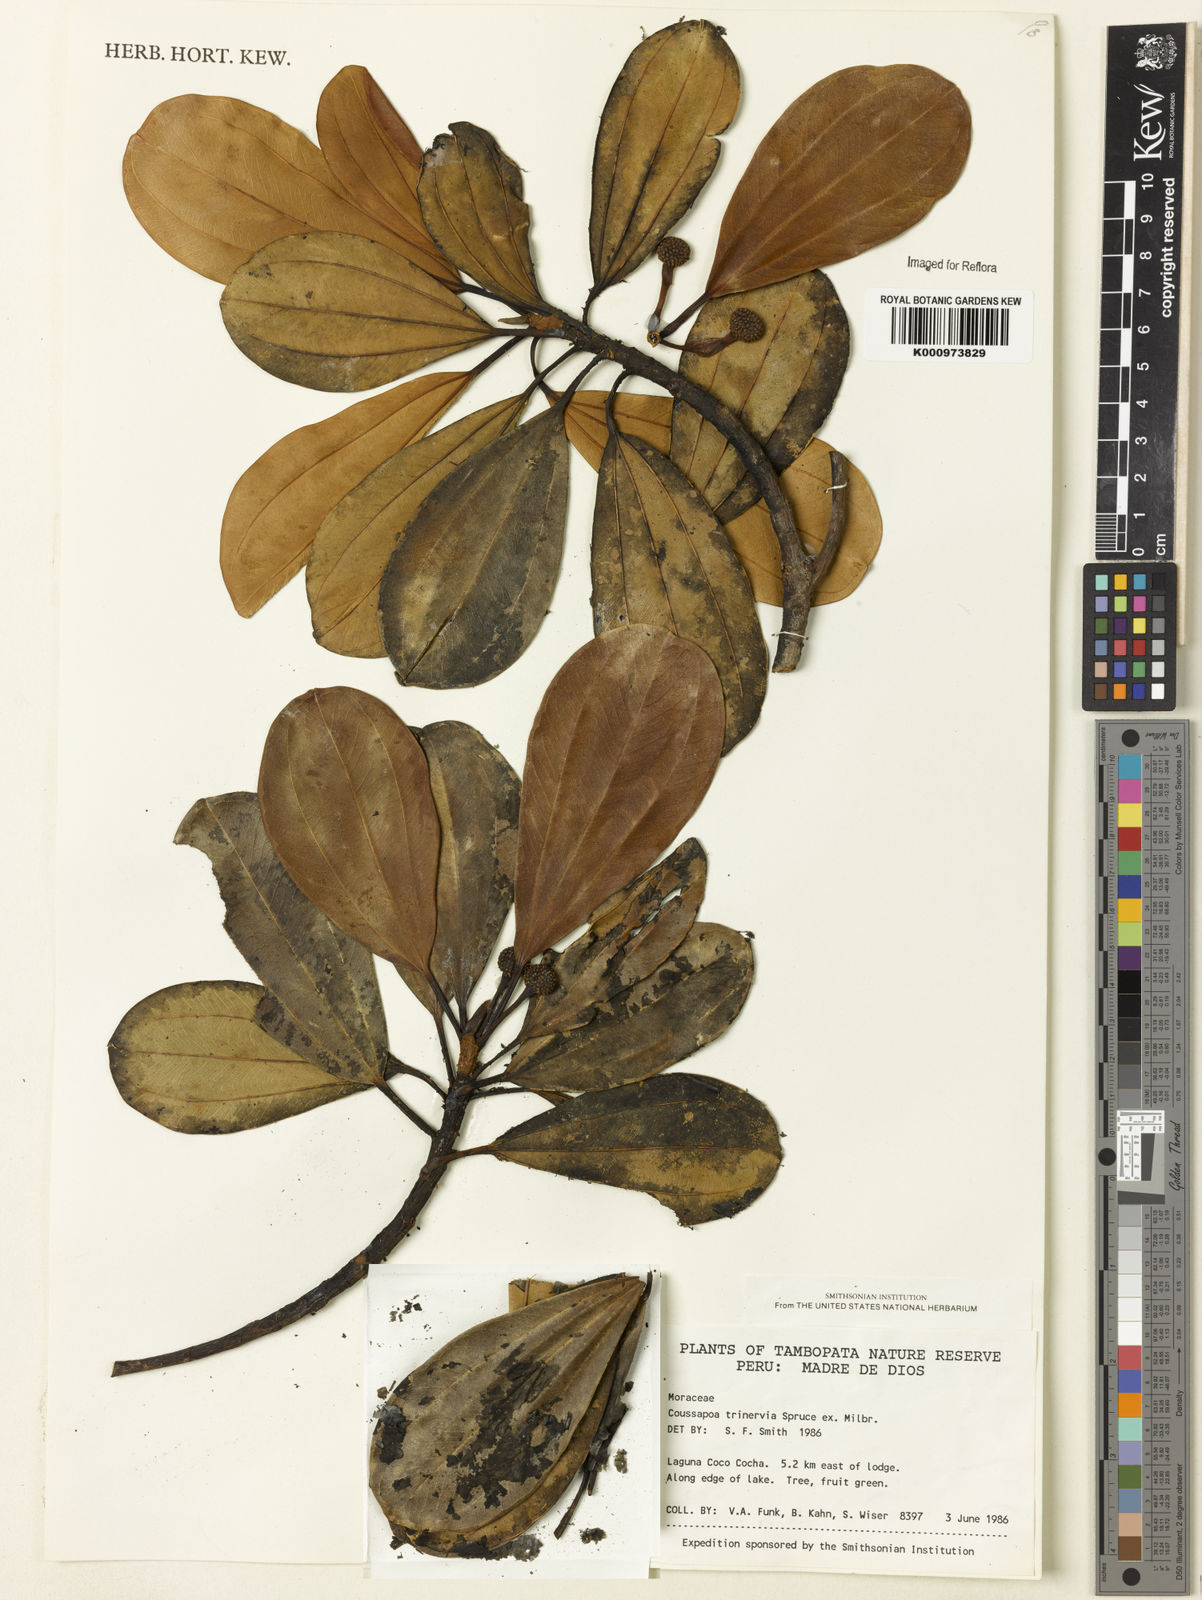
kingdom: Plantae
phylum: Tracheophyta
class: Magnoliopsida
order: Rosales
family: Urticaceae
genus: Coussapoa
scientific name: Coussapoa trinervia
